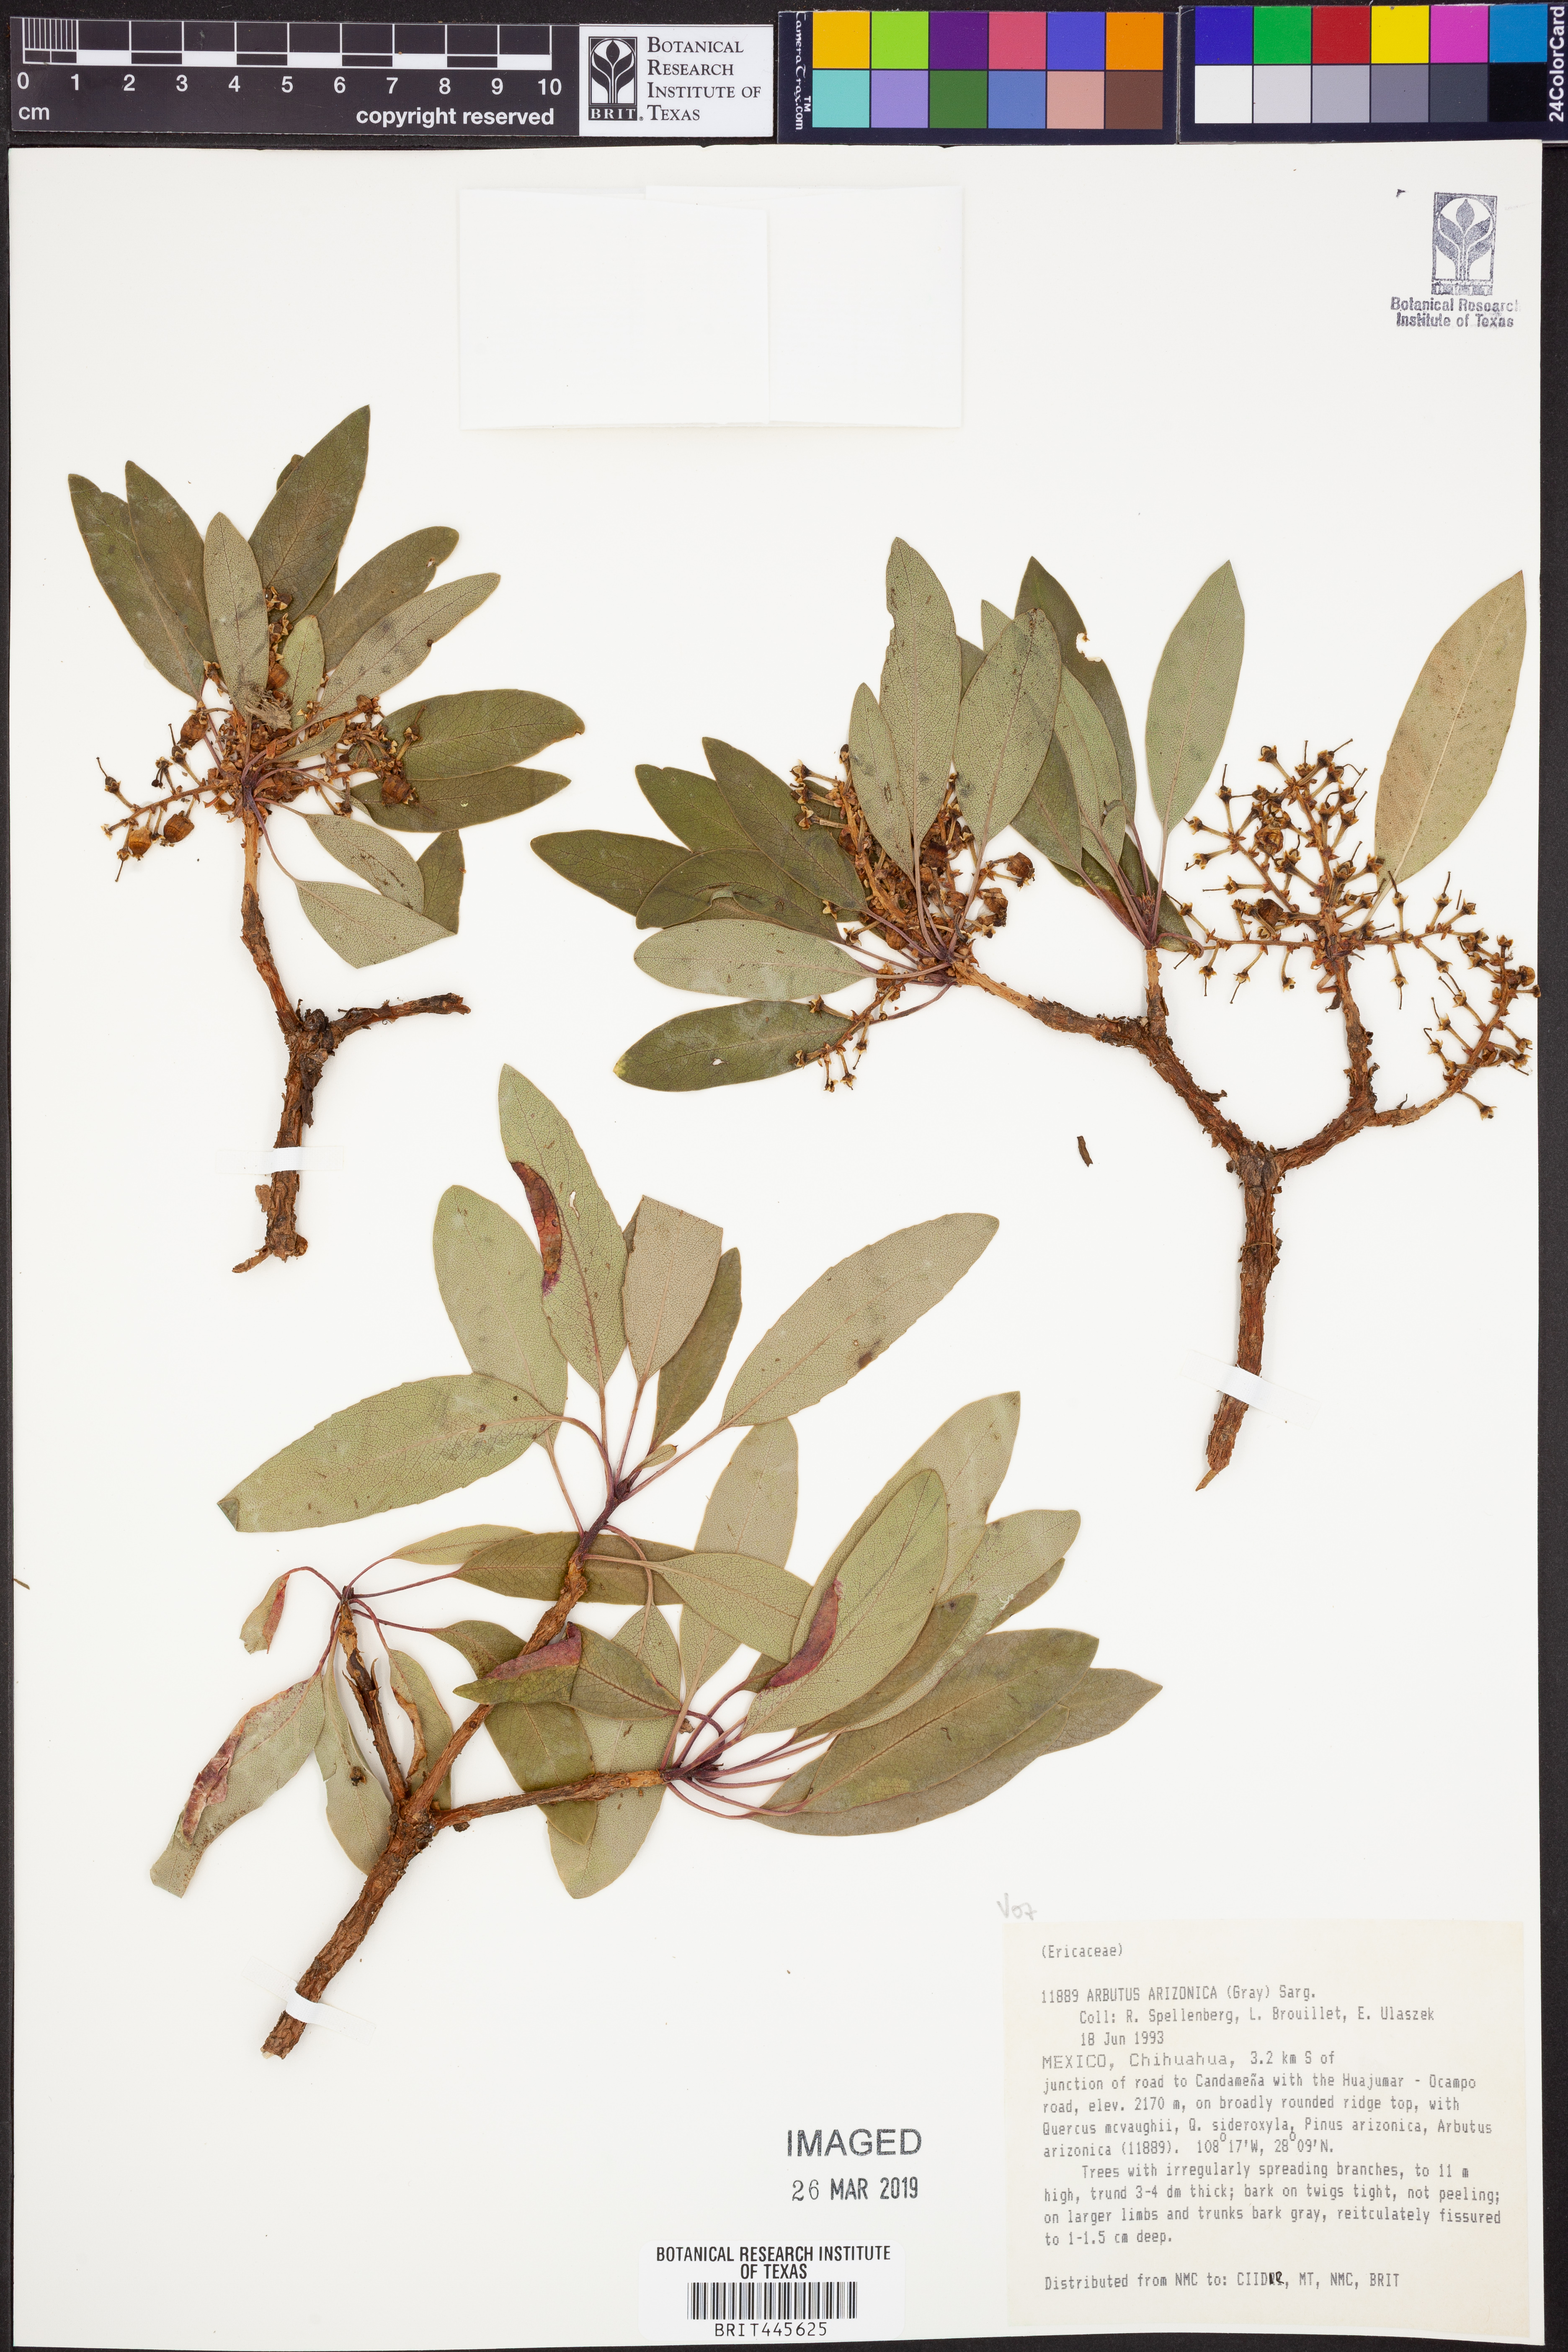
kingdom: Plantae
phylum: Tracheophyta
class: Magnoliopsida
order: Ericales
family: Ericaceae
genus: Arbutus
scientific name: Arbutus arizonica
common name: Arizona madrone
